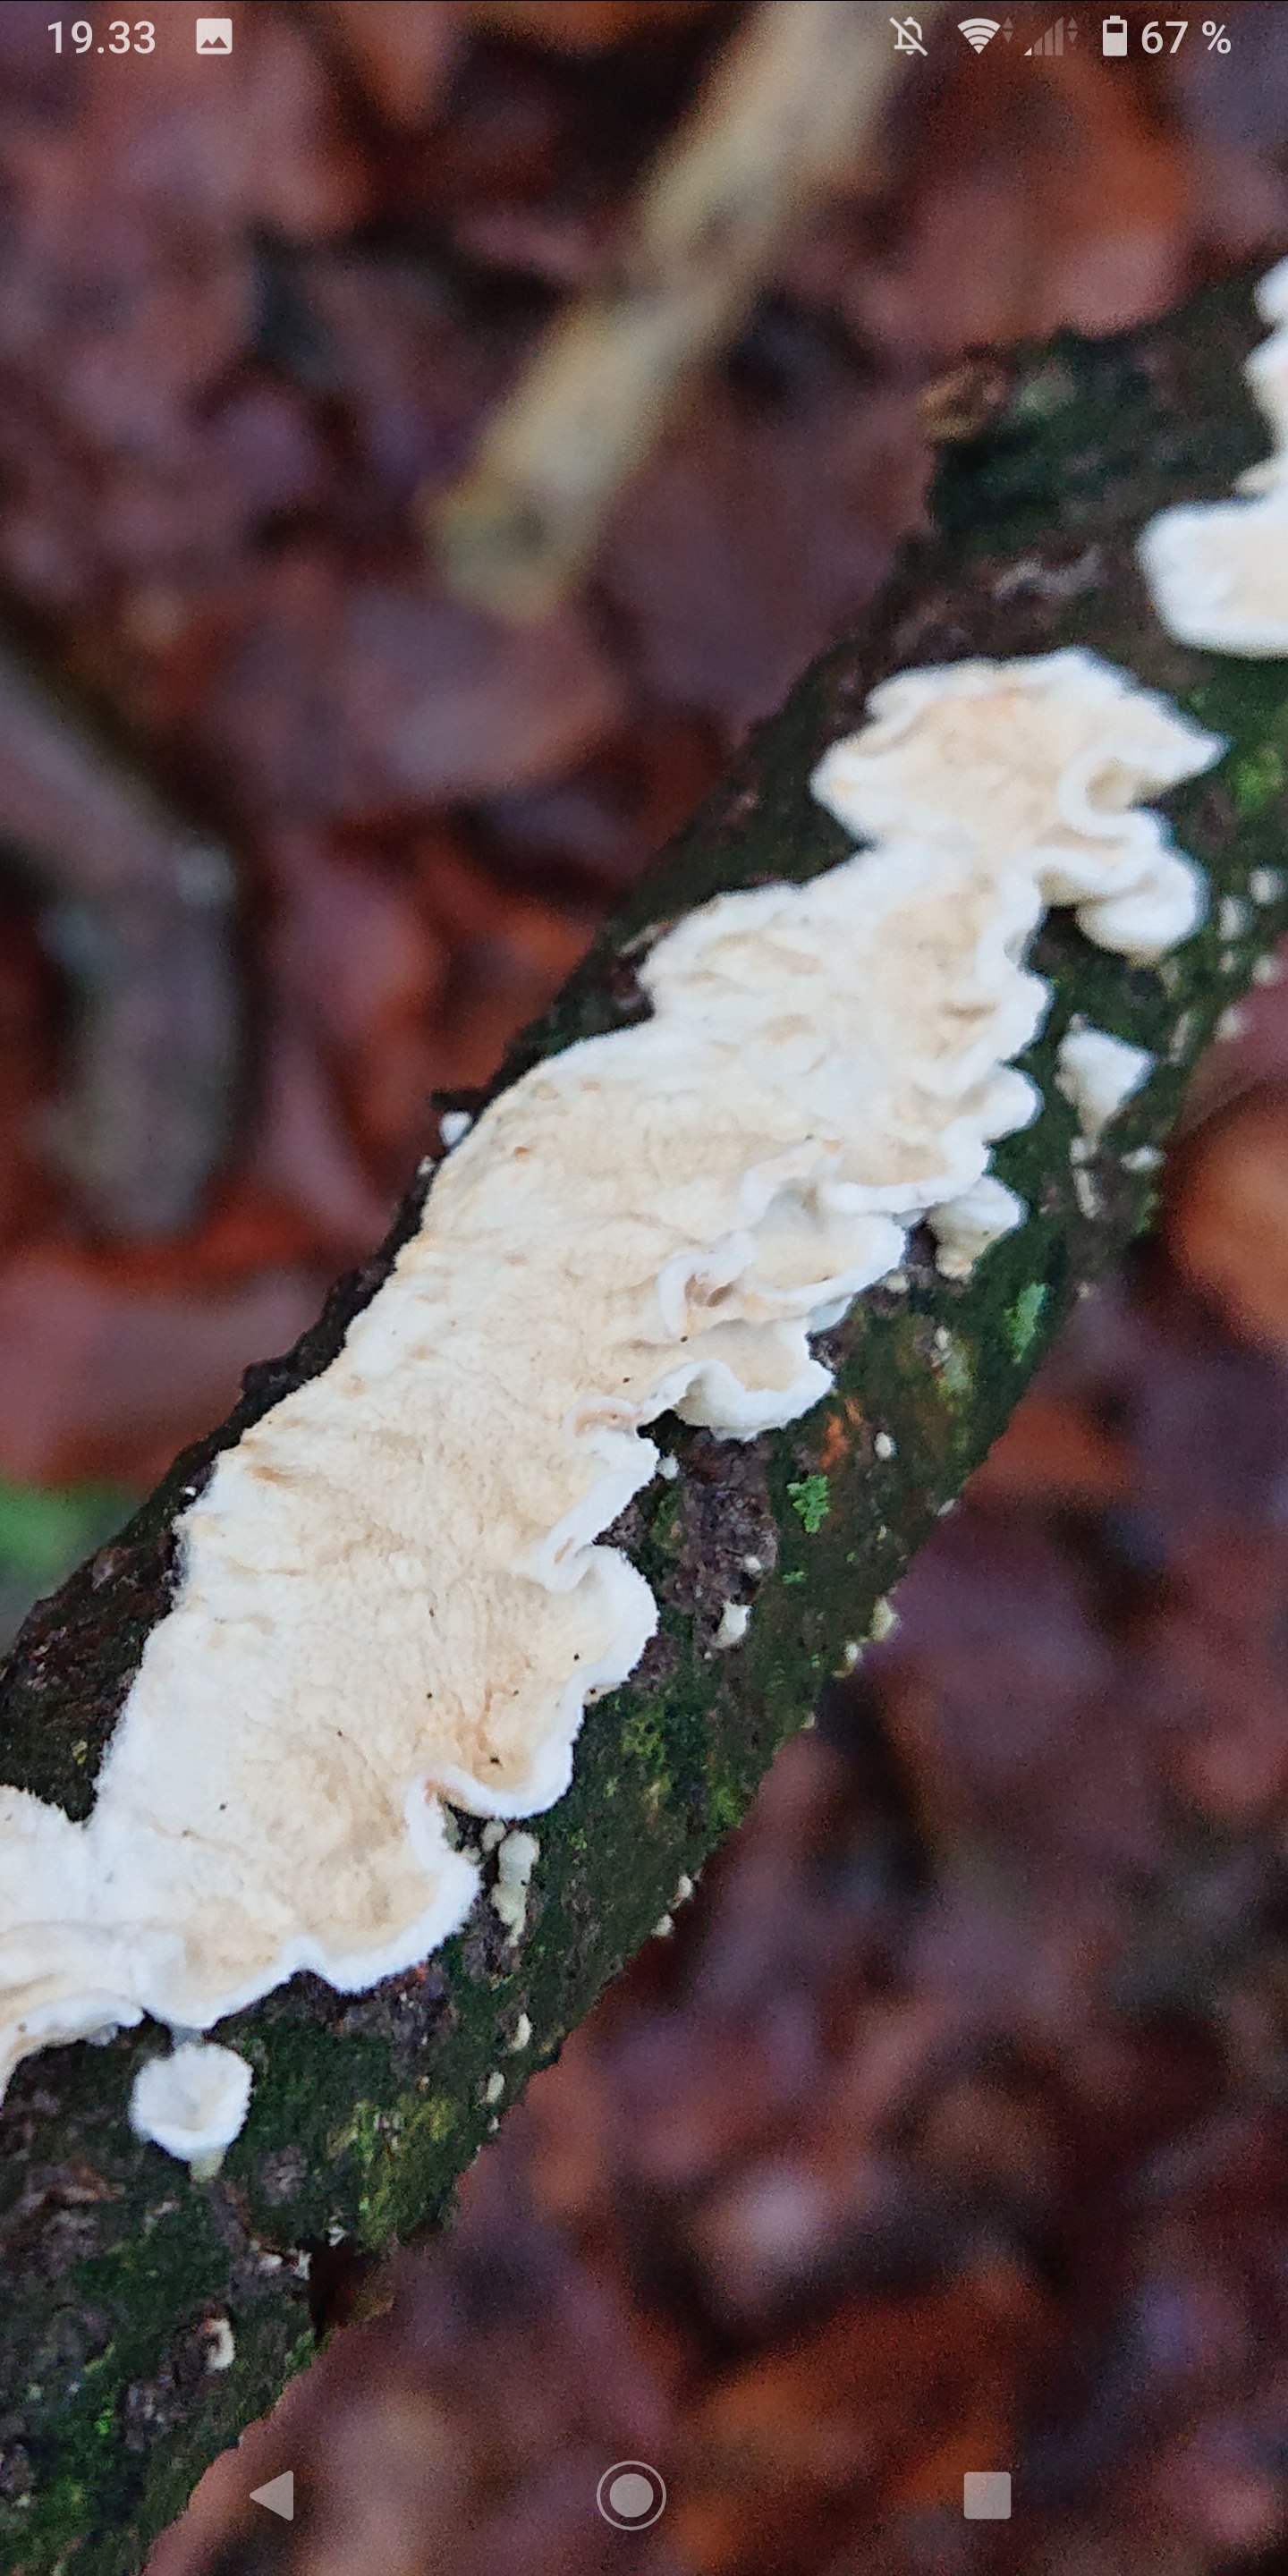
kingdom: Fungi
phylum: Basidiomycota
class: Agaricomycetes
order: Polyporales
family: Irpicaceae
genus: Byssomerulius
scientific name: Byssomerulius corium
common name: læder-åresvamp
